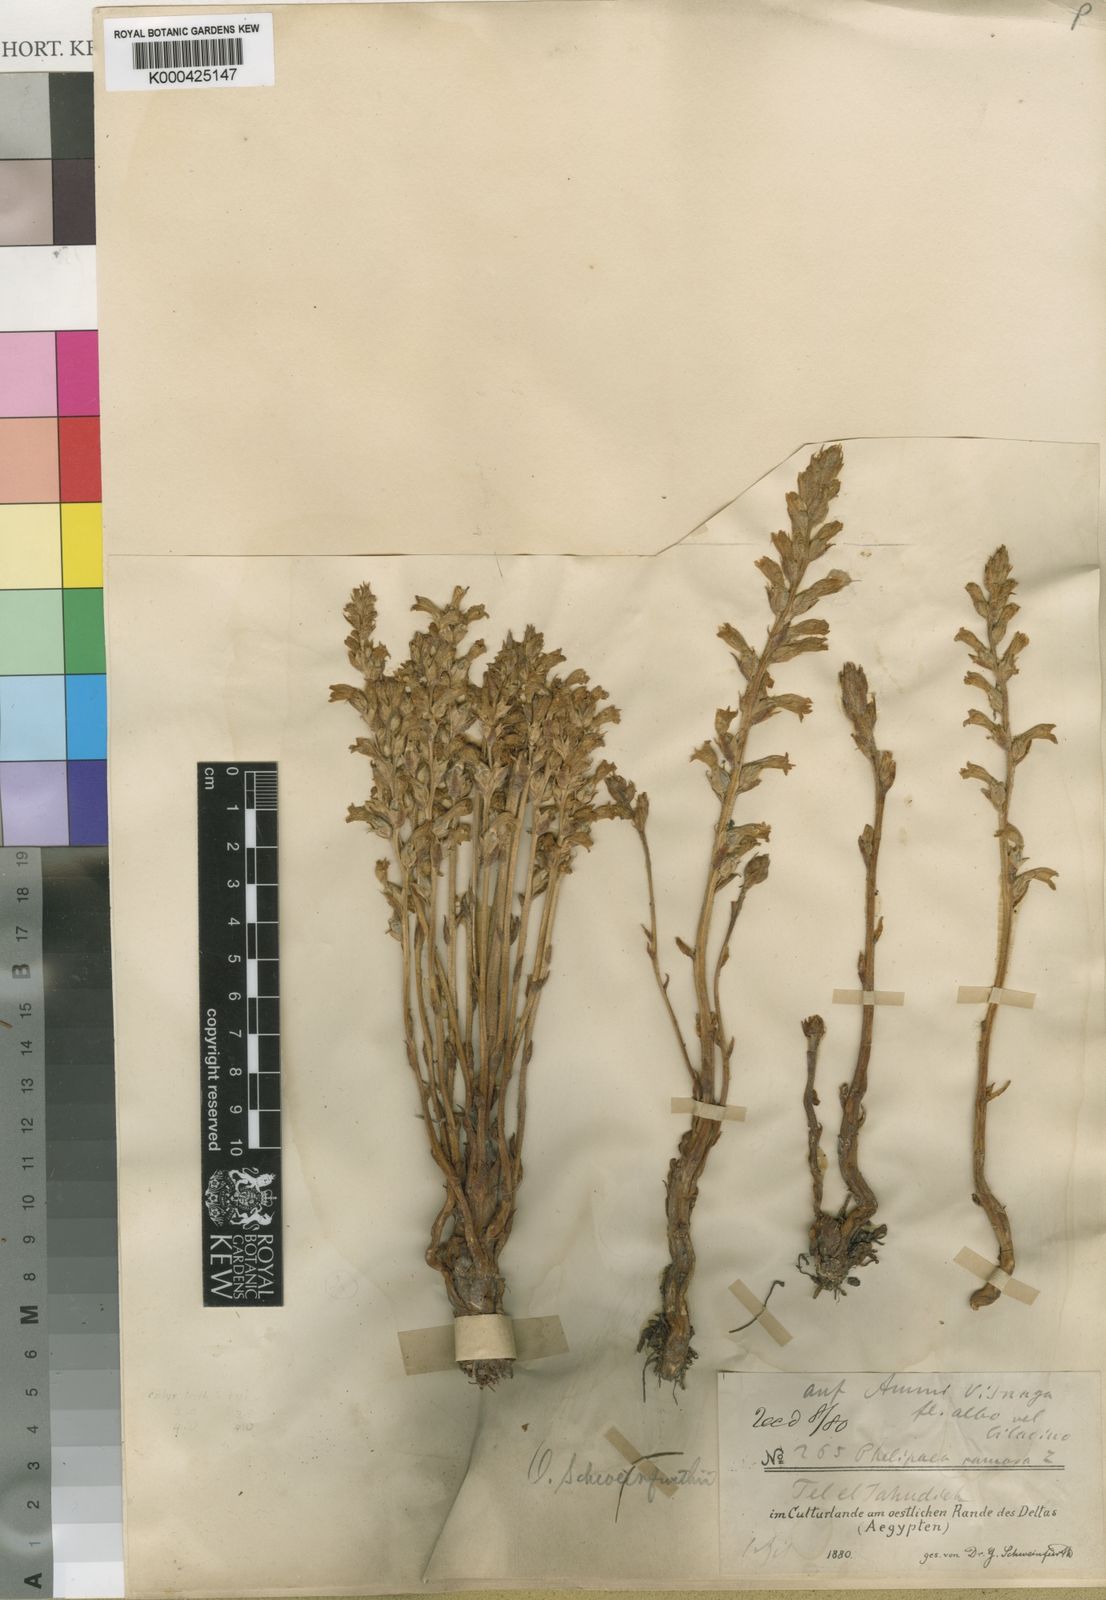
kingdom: Plantae
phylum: Tracheophyta
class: Magnoliopsida
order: Lamiales
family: Orobanchaceae
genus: Phelipanche
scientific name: Phelipanche schweinfurthii
